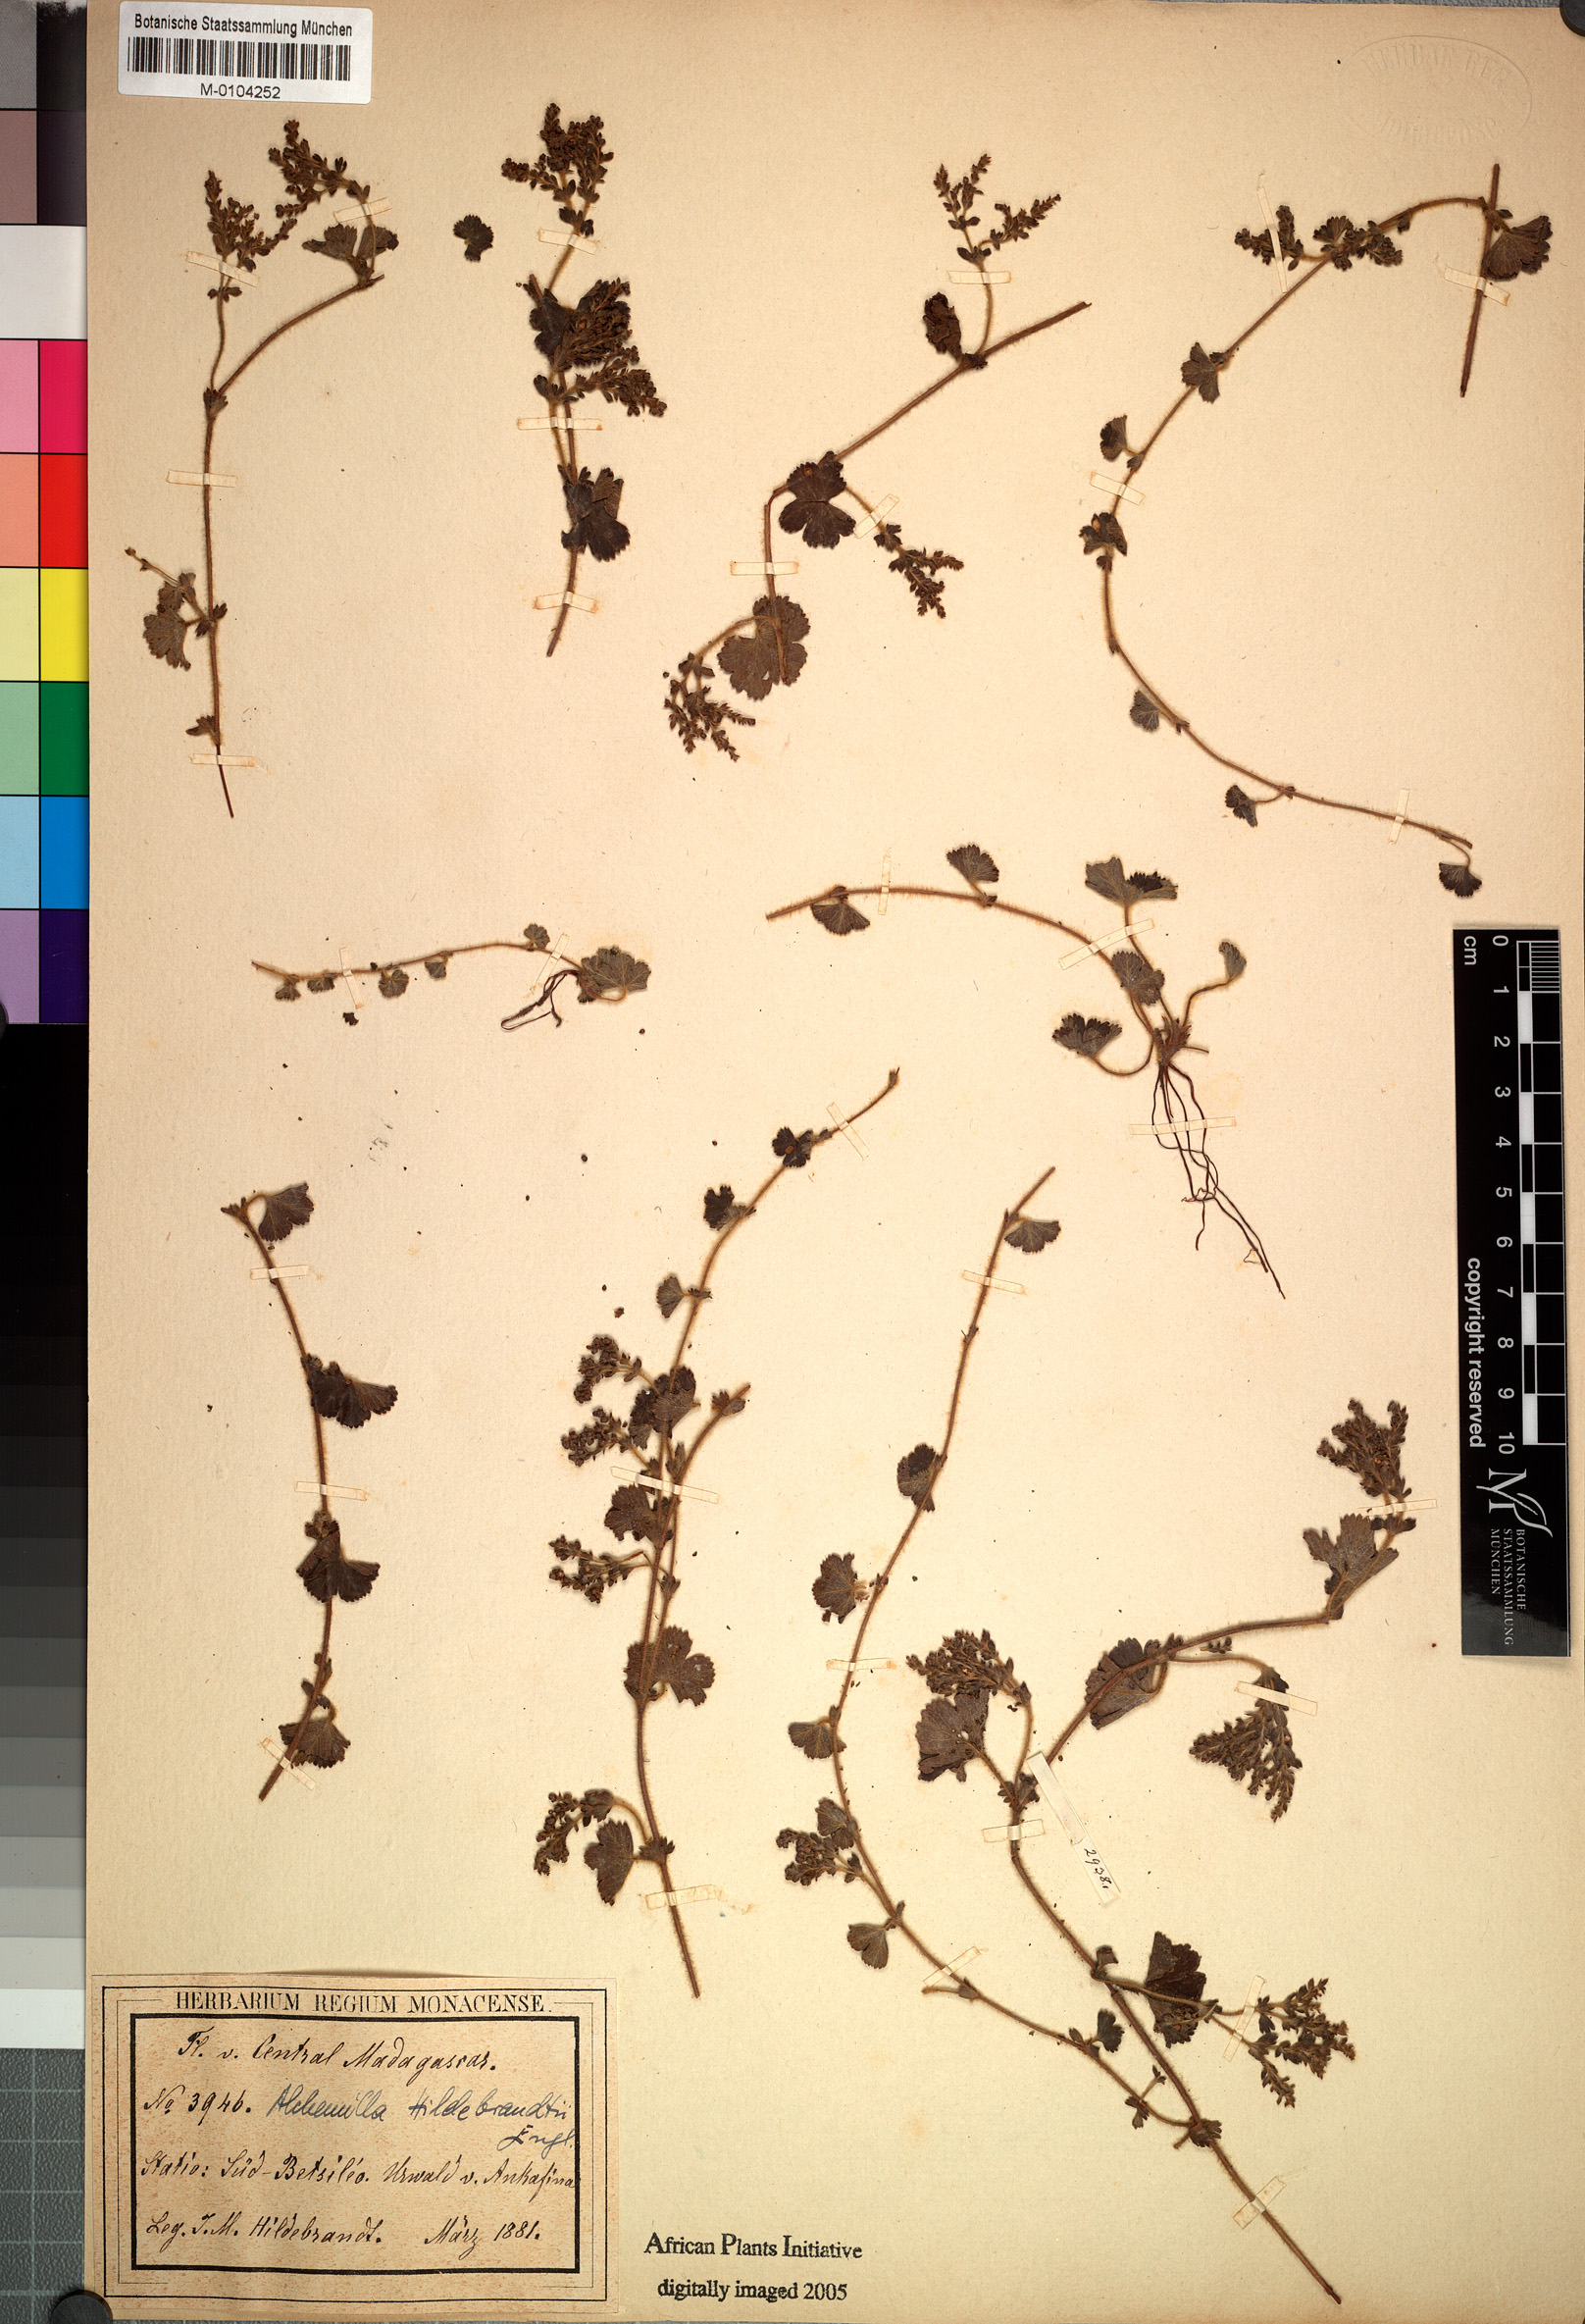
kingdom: Plantae
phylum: Tracheophyta
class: Magnoliopsida
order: Rosales
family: Rosaceae
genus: Alchemilla
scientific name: Alchemilla hildebrandtii
